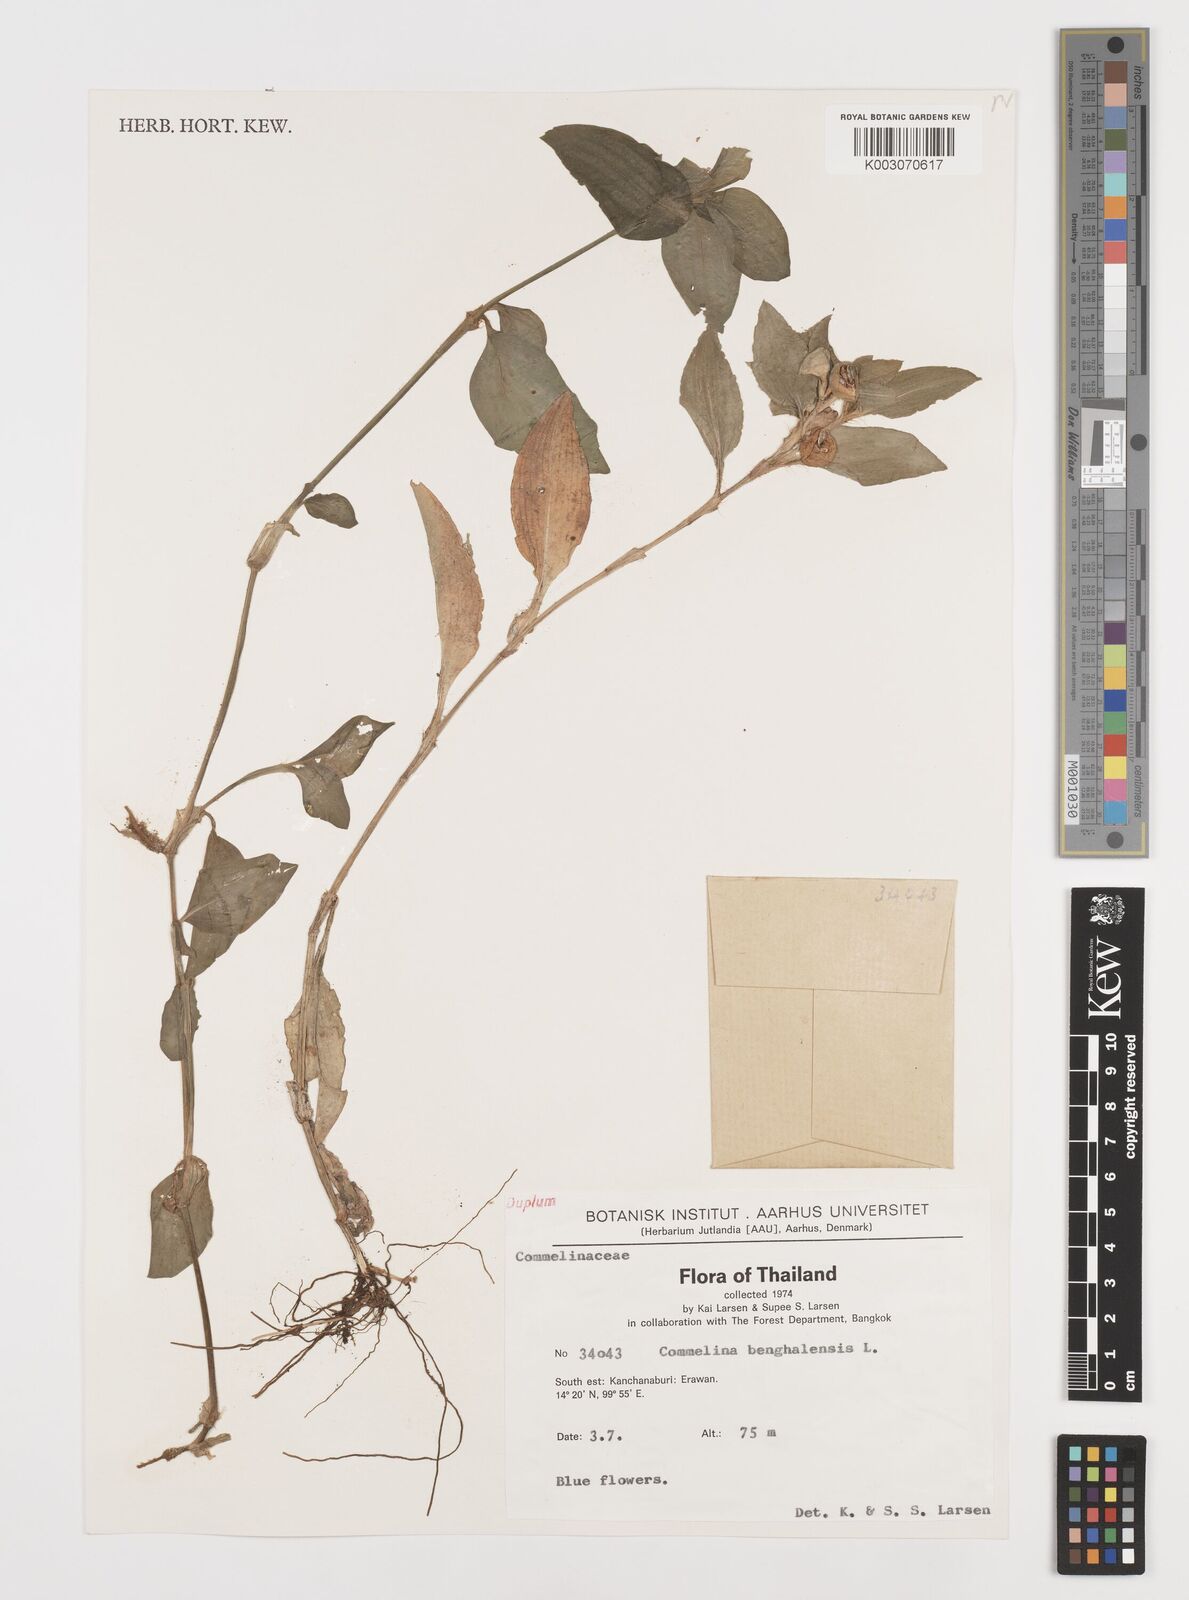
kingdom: Plantae
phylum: Tracheophyta
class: Liliopsida
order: Commelinales
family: Commelinaceae
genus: Commelina
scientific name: Commelina benghalensis
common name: Jio
